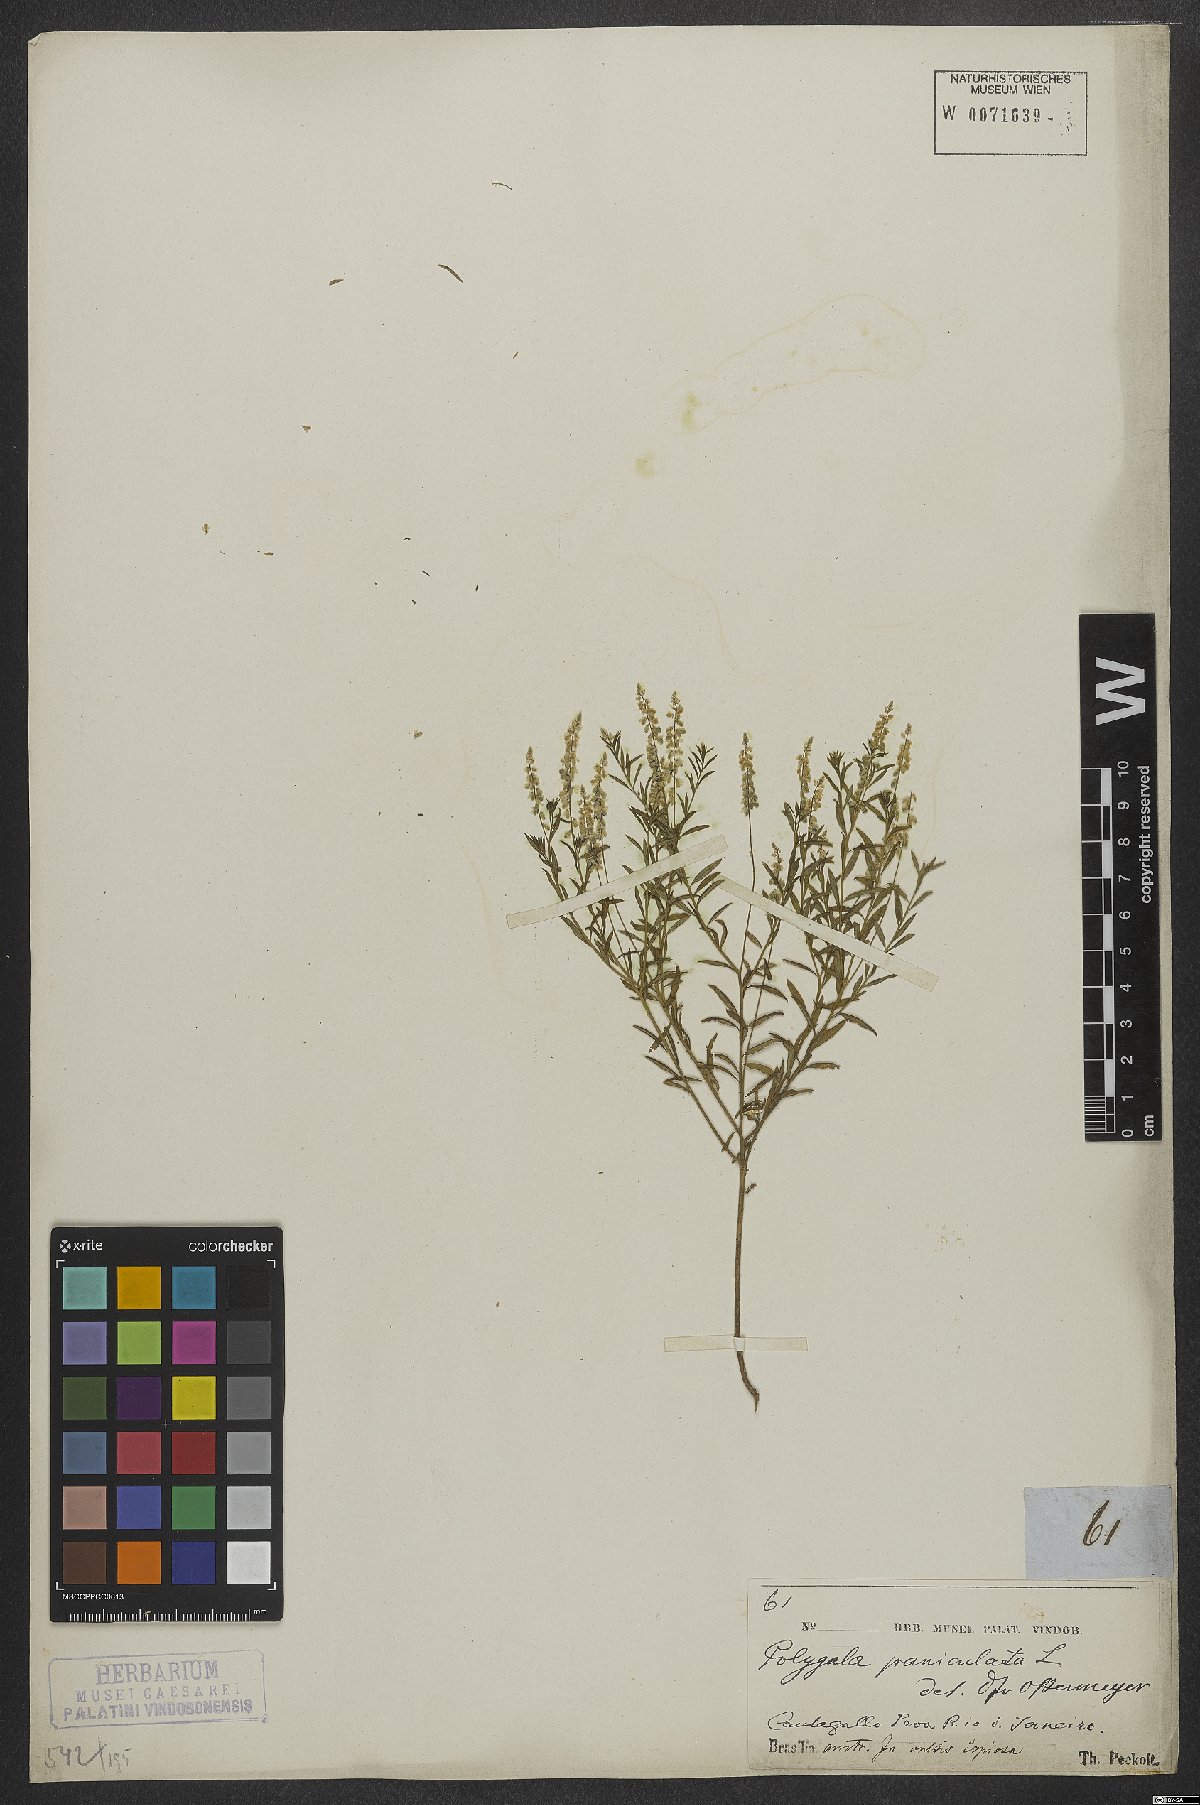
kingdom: Plantae
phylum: Tracheophyta
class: Magnoliopsida
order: Fabales
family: Polygalaceae
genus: Polygala
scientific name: Polygala exilis
